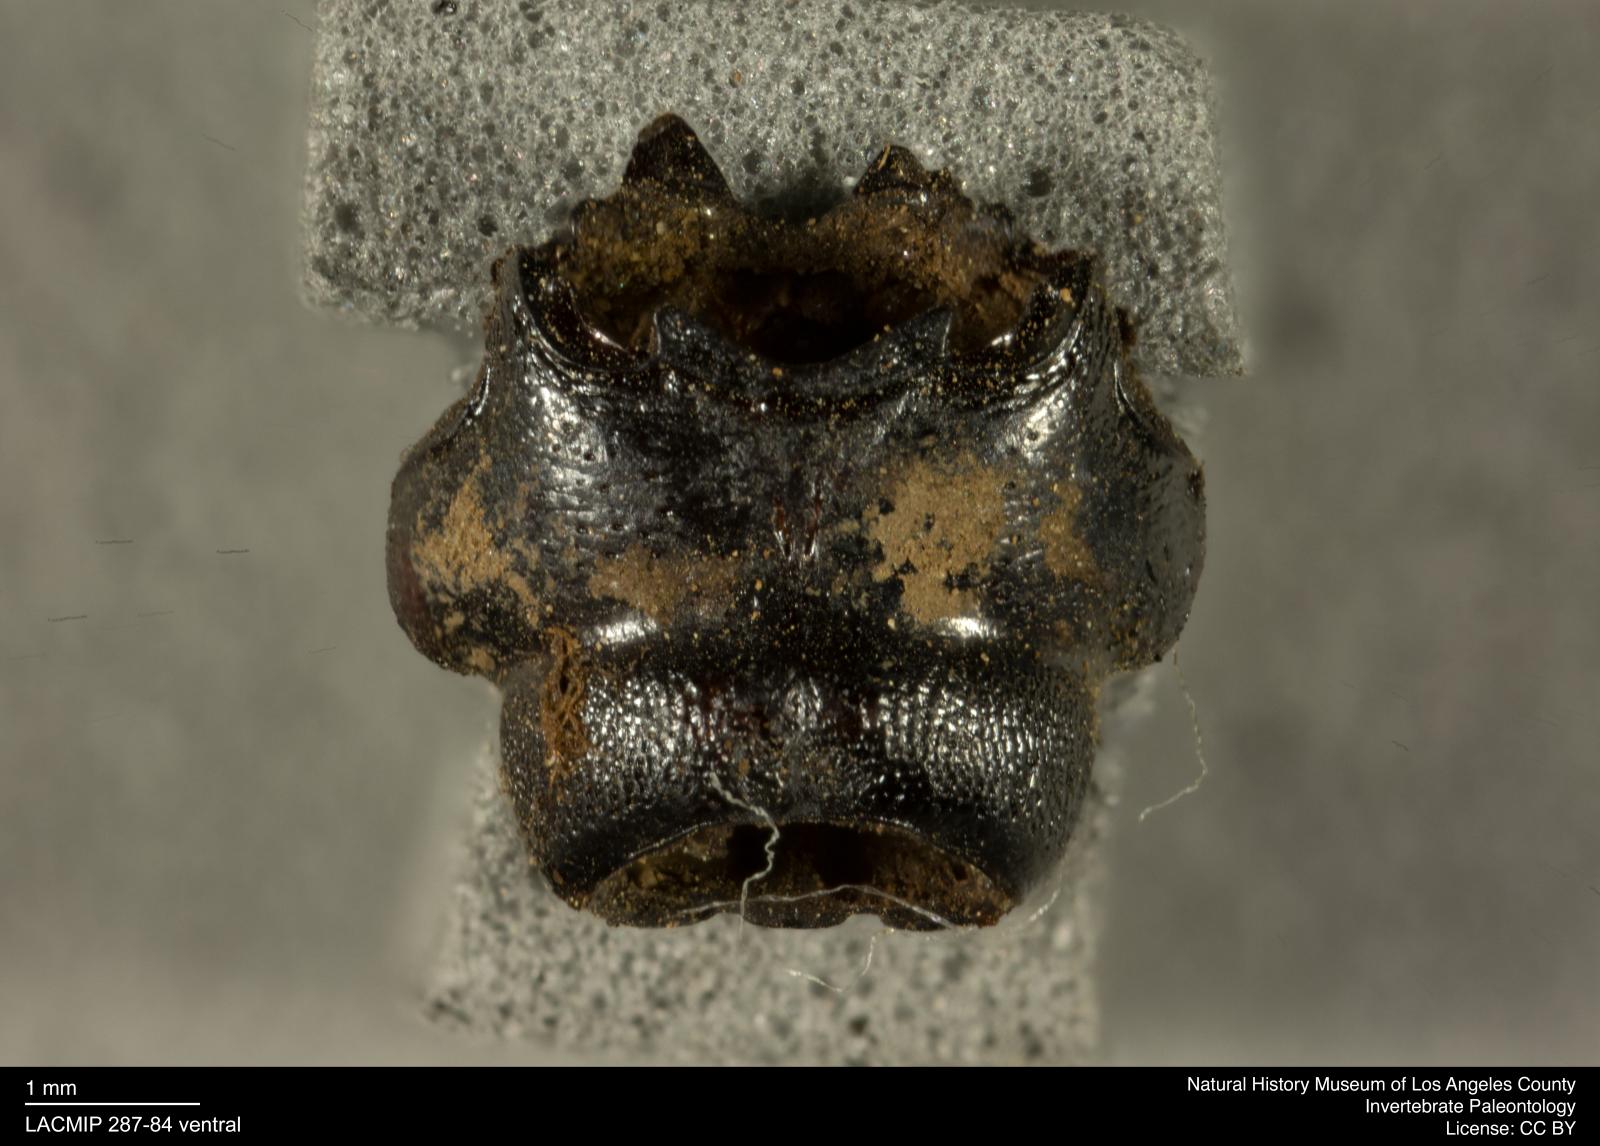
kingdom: Animalia
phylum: Arthropoda
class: Insecta
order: Coleoptera
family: Staphylinidae
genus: Nicrophorus
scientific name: Nicrophorus marginatus
